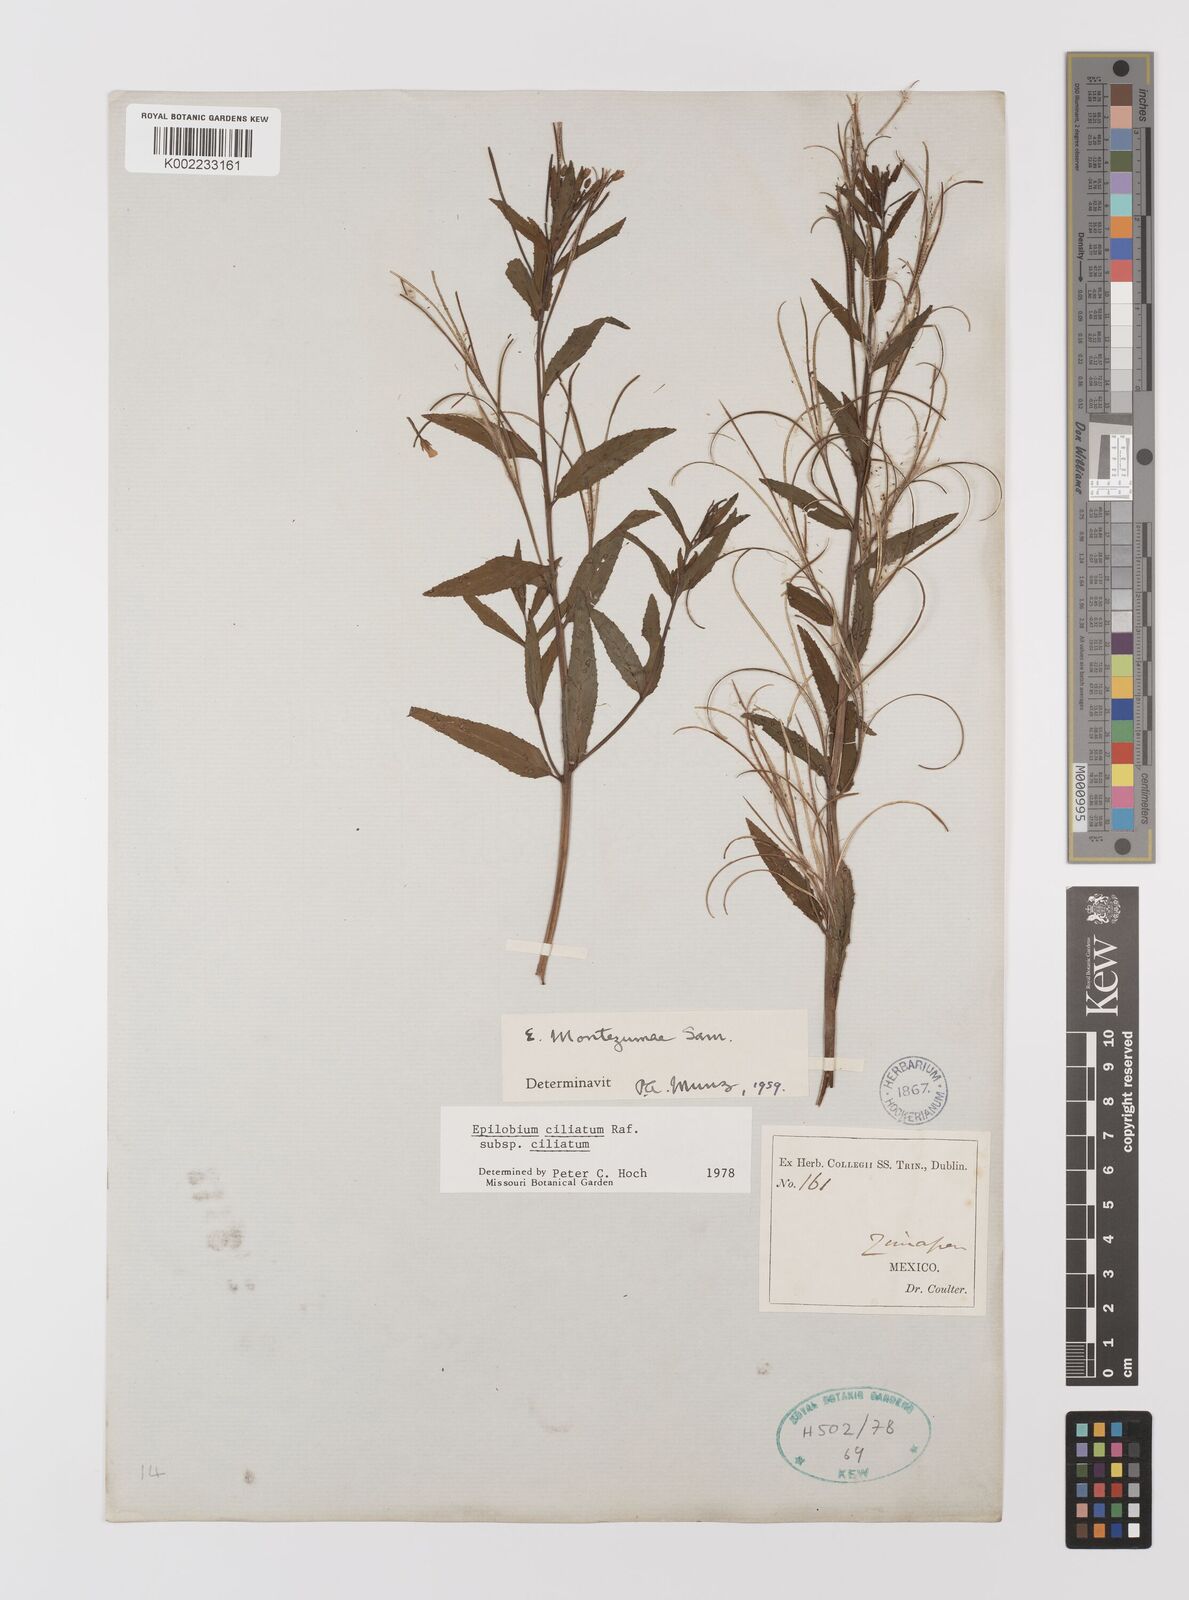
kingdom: Plantae
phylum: Tracheophyta
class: Magnoliopsida
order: Myrtales
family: Onagraceae
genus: Epilobium
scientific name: Epilobium ciliatum
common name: American willowherb
